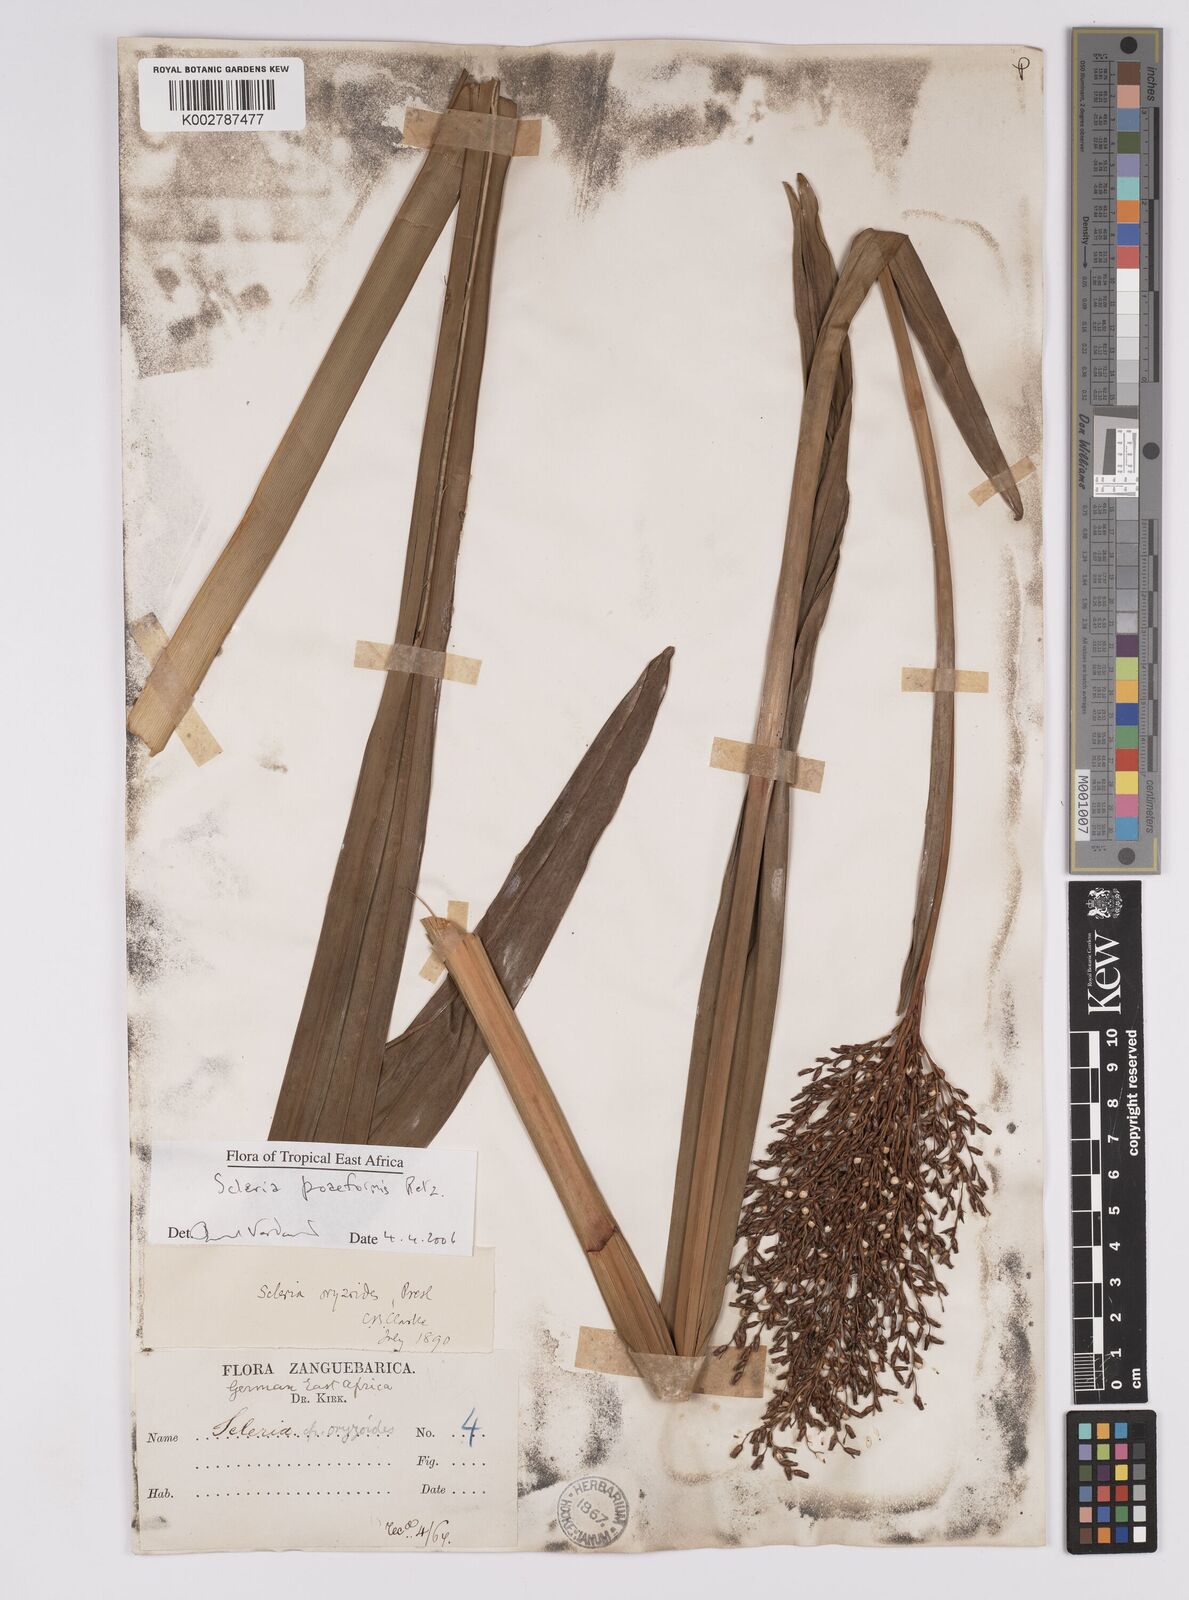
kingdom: Plantae
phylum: Tracheophyta
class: Liliopsida
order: Poales
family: Cyperaceae
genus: Scleria
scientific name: Scleria poiformis
